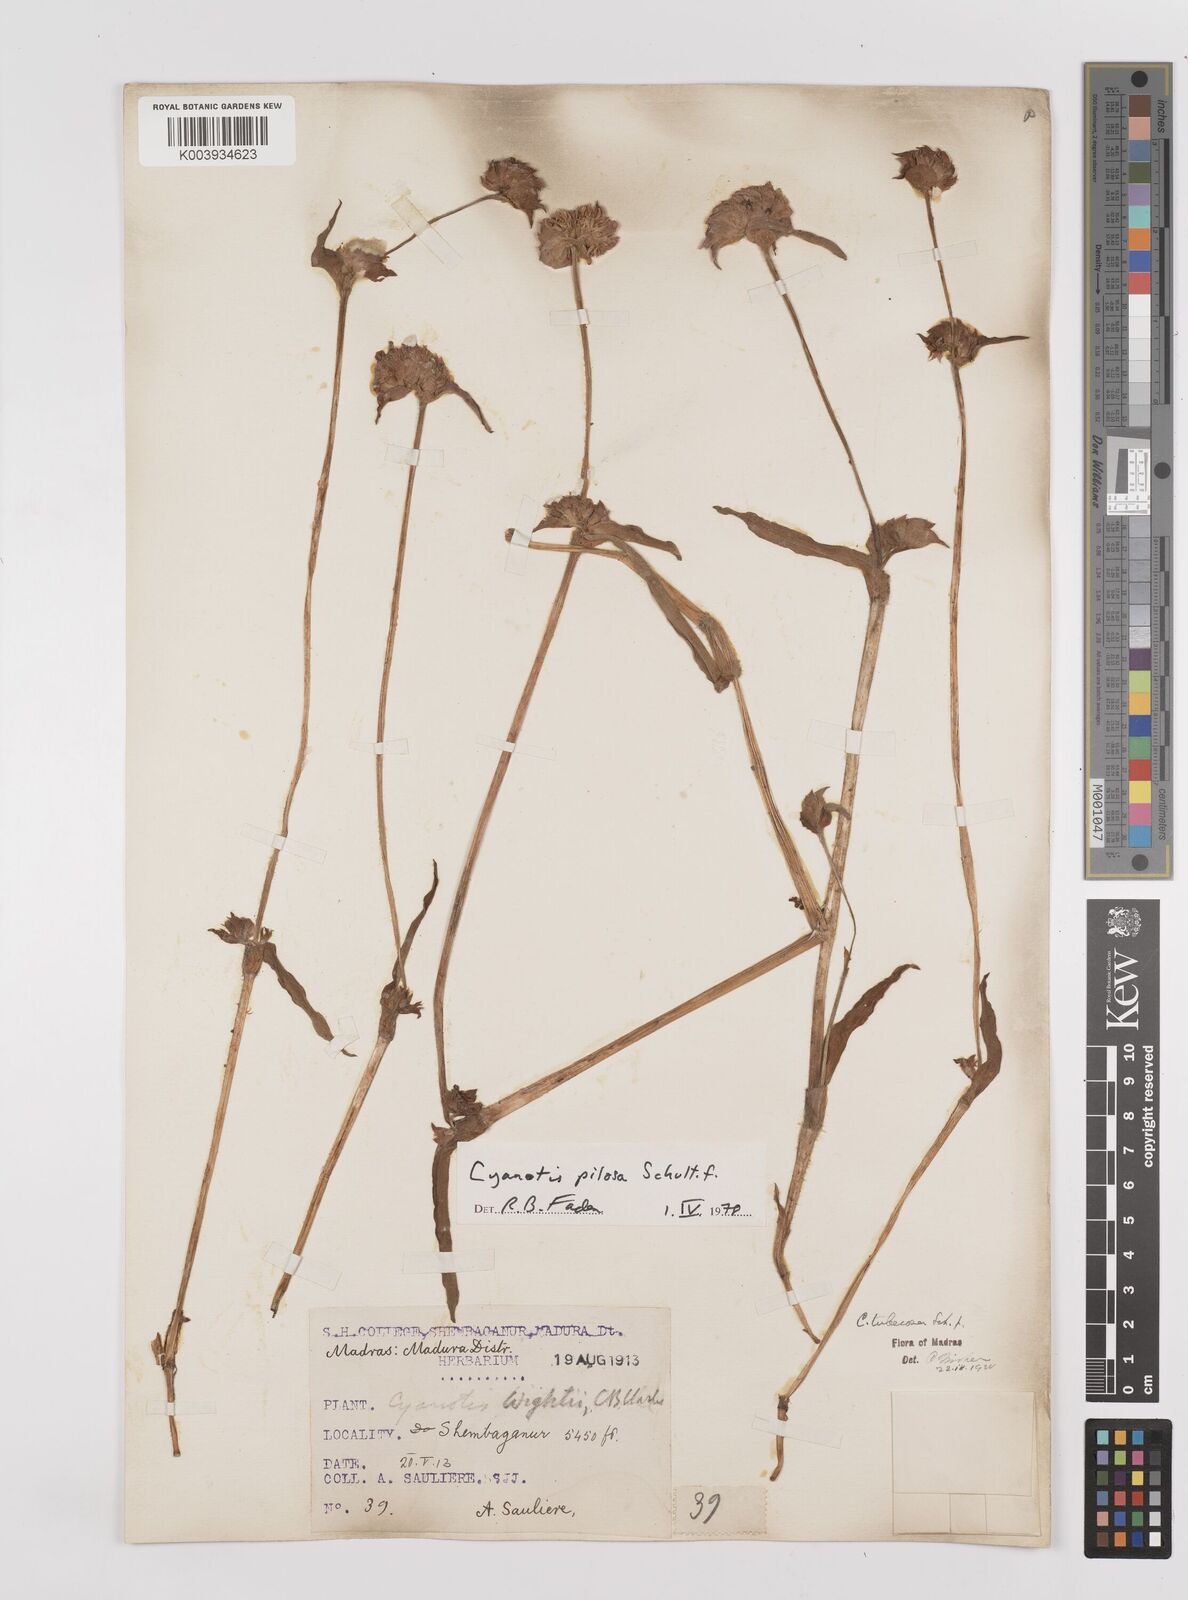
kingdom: Plantae
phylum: Tracheophyta
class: Liliopsida
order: Commelinales
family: Commelinaceae
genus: Cyanotis
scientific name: Cyanotis pilosa
